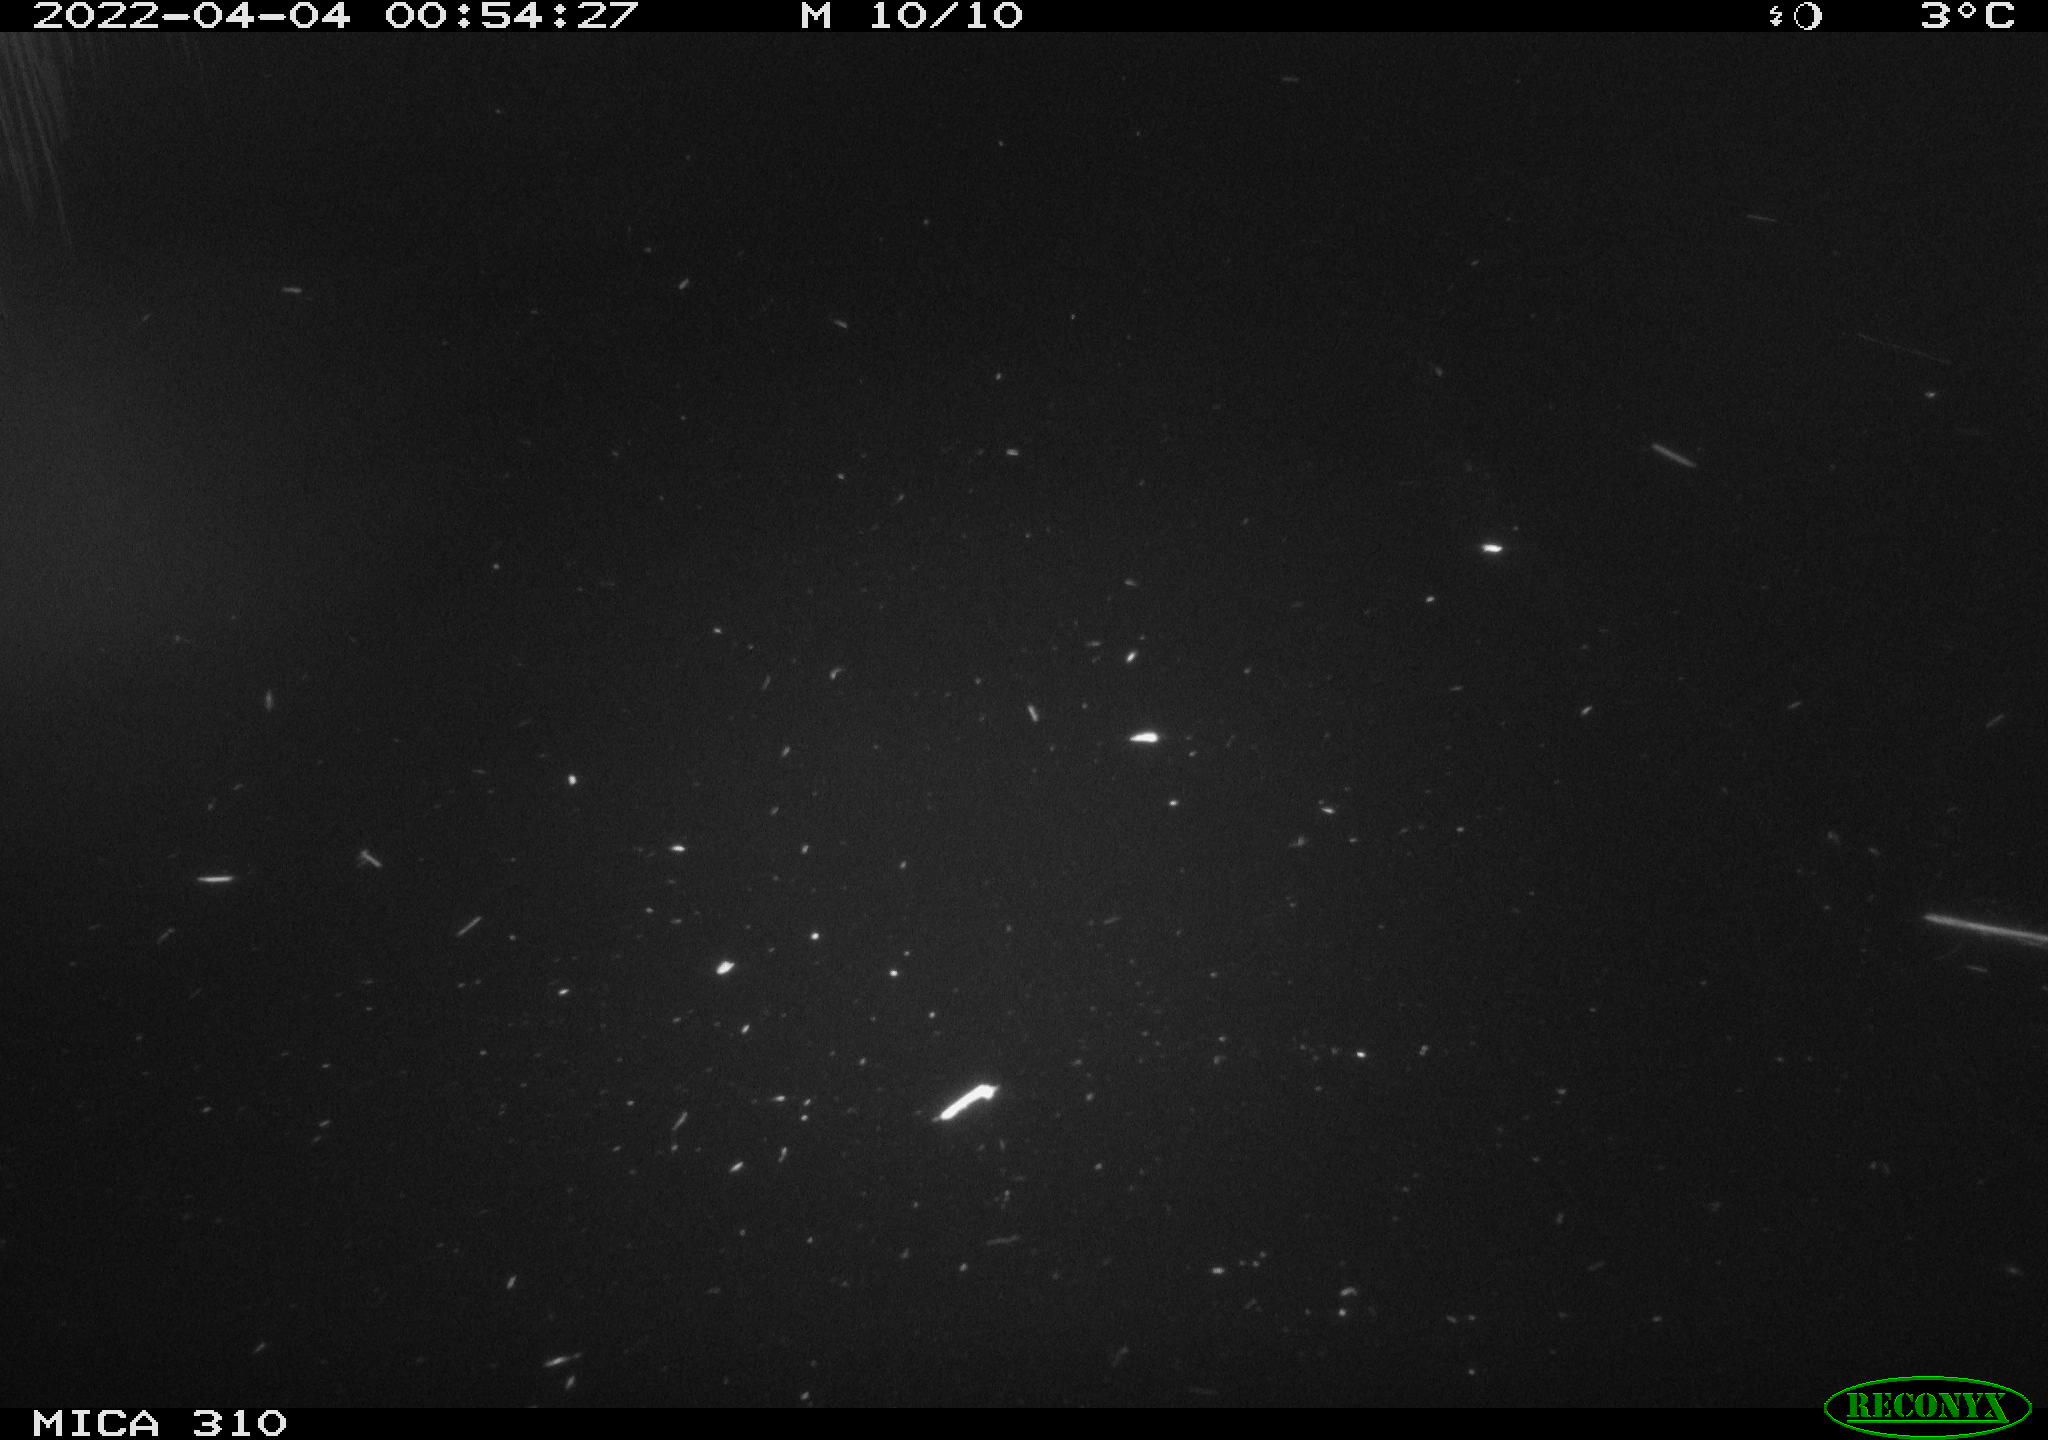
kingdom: Animalia
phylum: Chordata
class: Mammalia
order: Rodentia
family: Cricetidae
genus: Ondatra
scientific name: Ondatra zibethicus
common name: Muskrat
